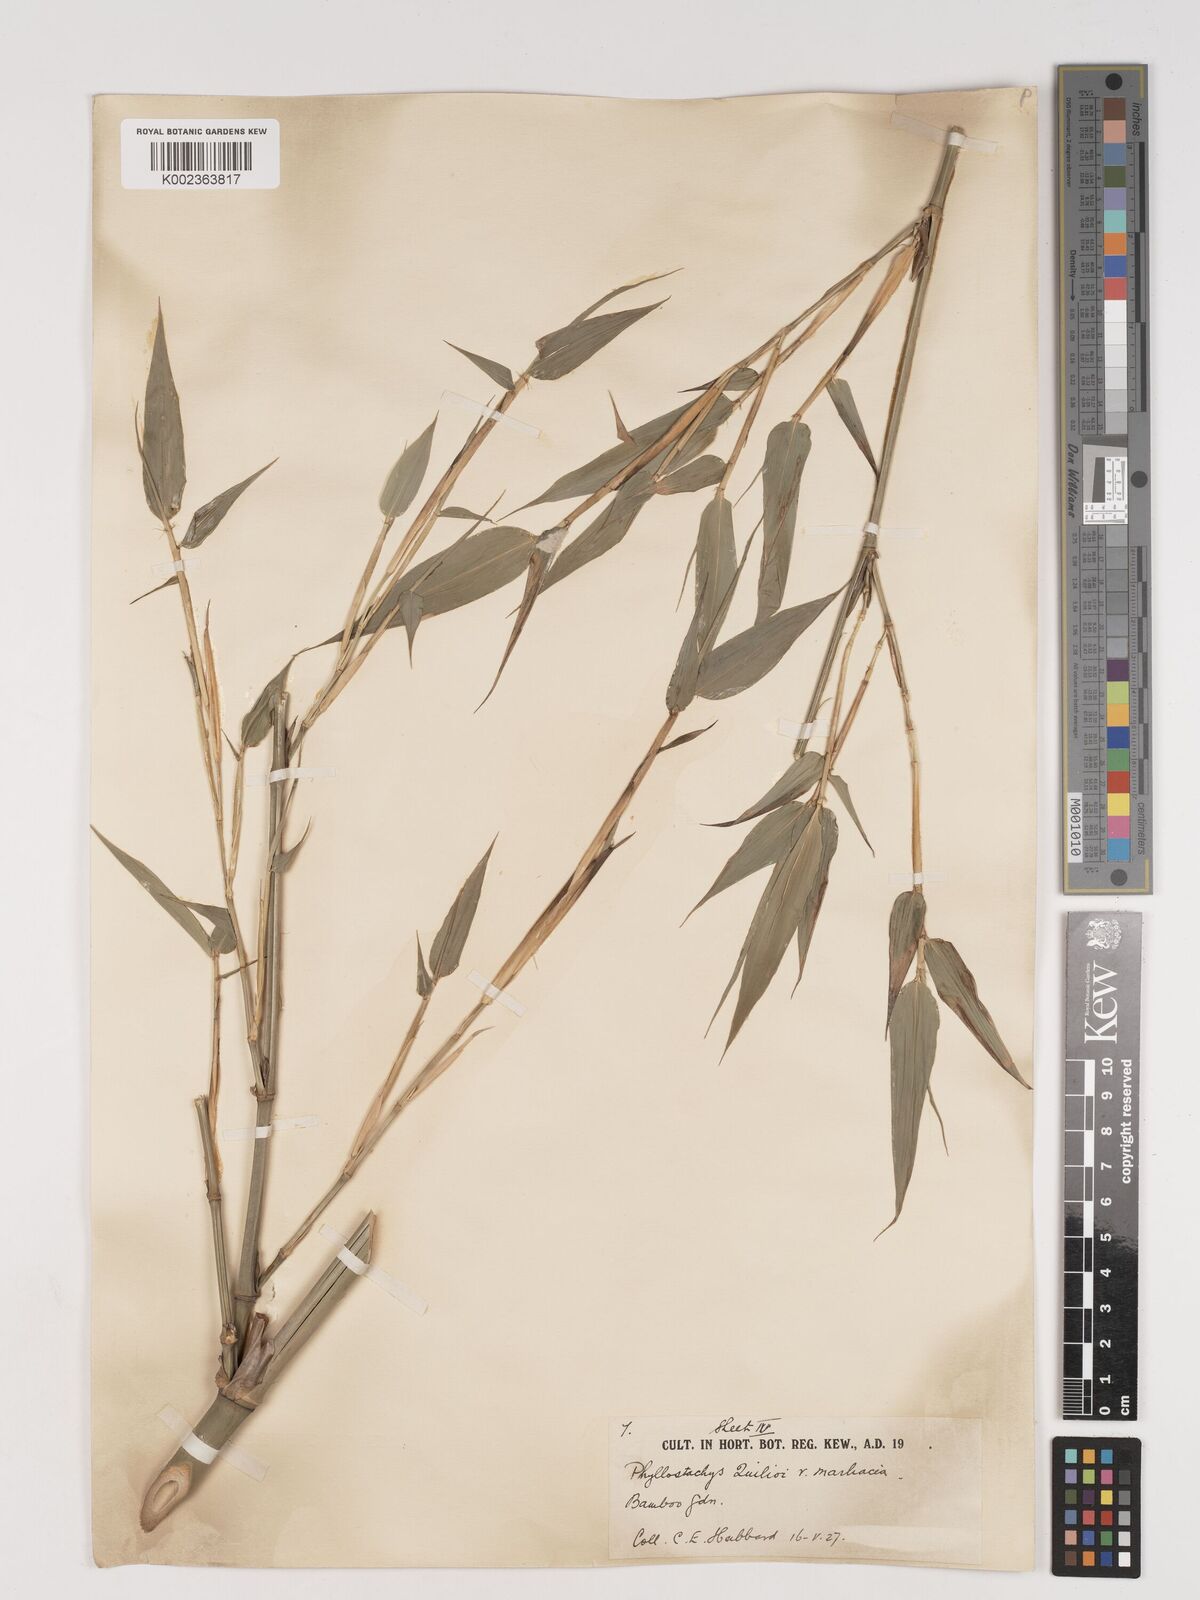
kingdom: Plantae
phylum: Tracheophyta
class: Liliopsida
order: Poales
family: Poaceae
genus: Phyllostachys
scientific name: Phyllostachys reticulata
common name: Bamboo
